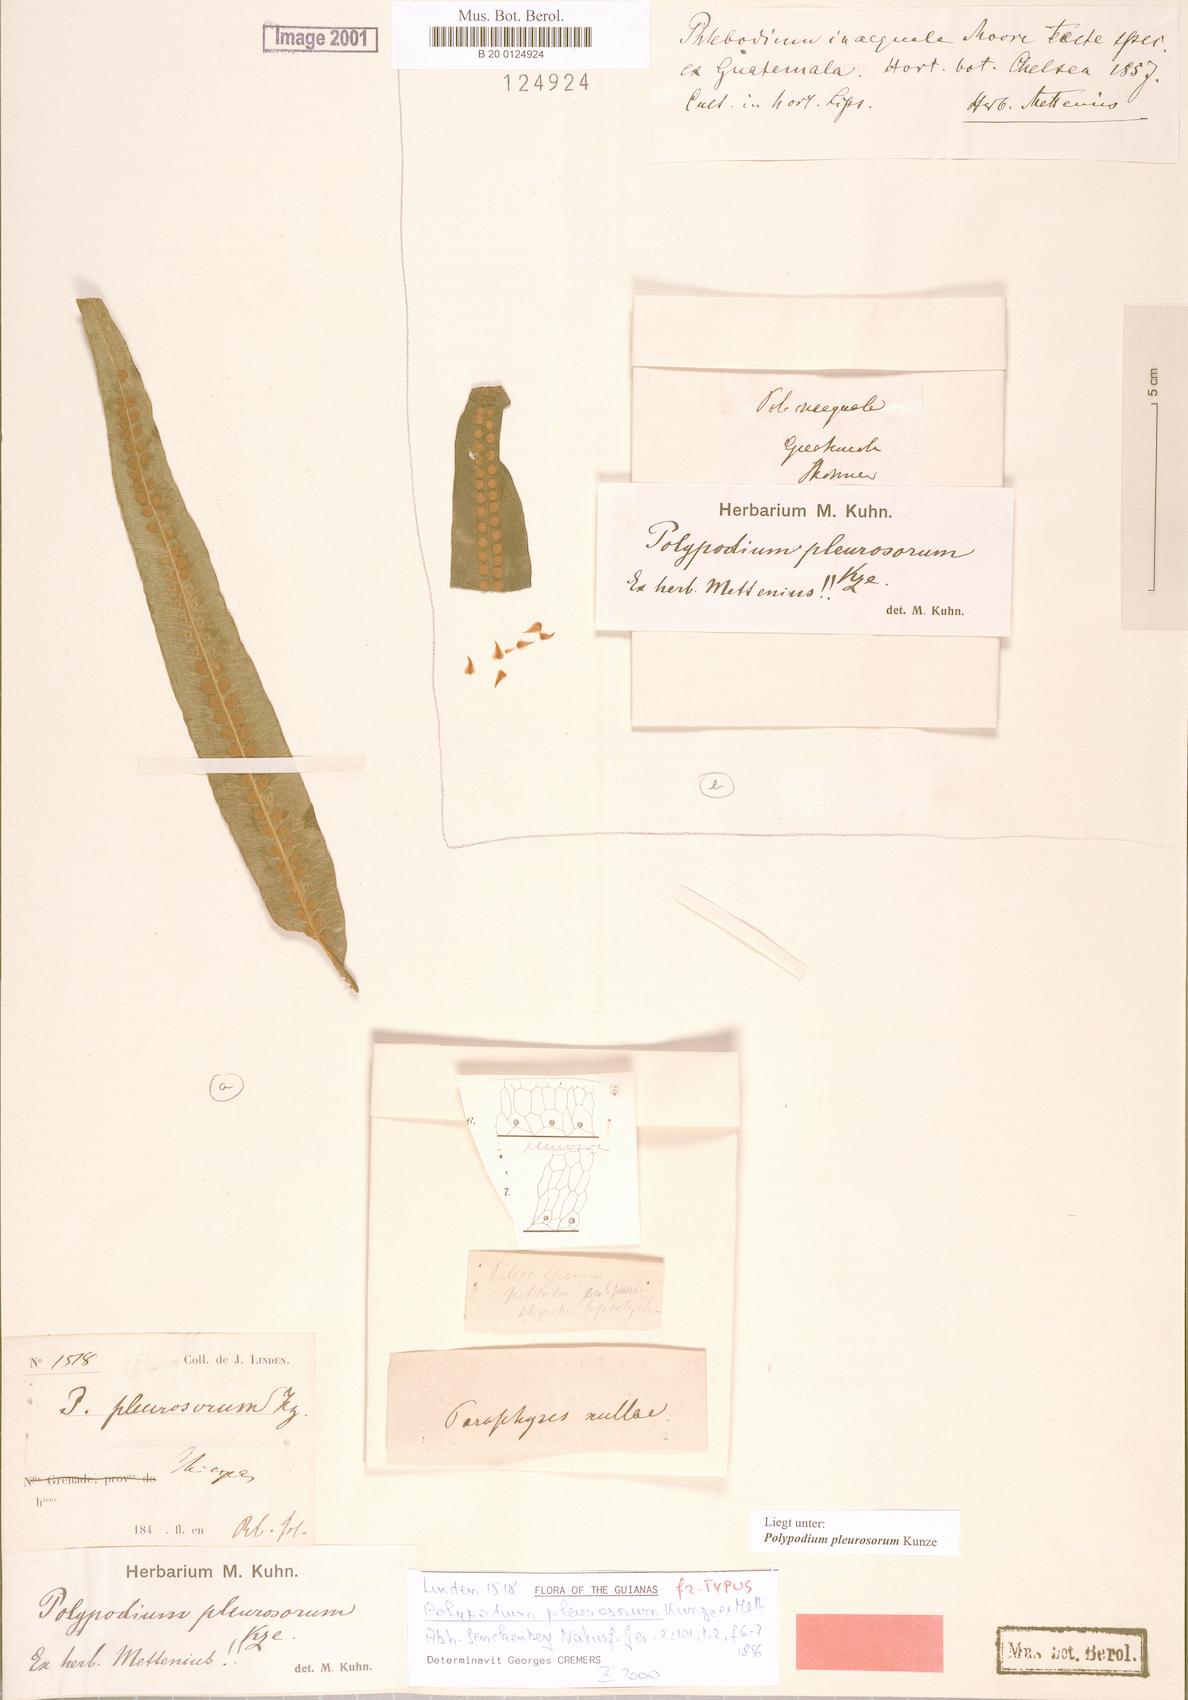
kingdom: Plantae
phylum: Tracheophyta
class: Polypodiopsida
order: Polypodiales
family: Polypodiaceae
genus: Polypodium
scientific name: Polypodium pleurosorum
